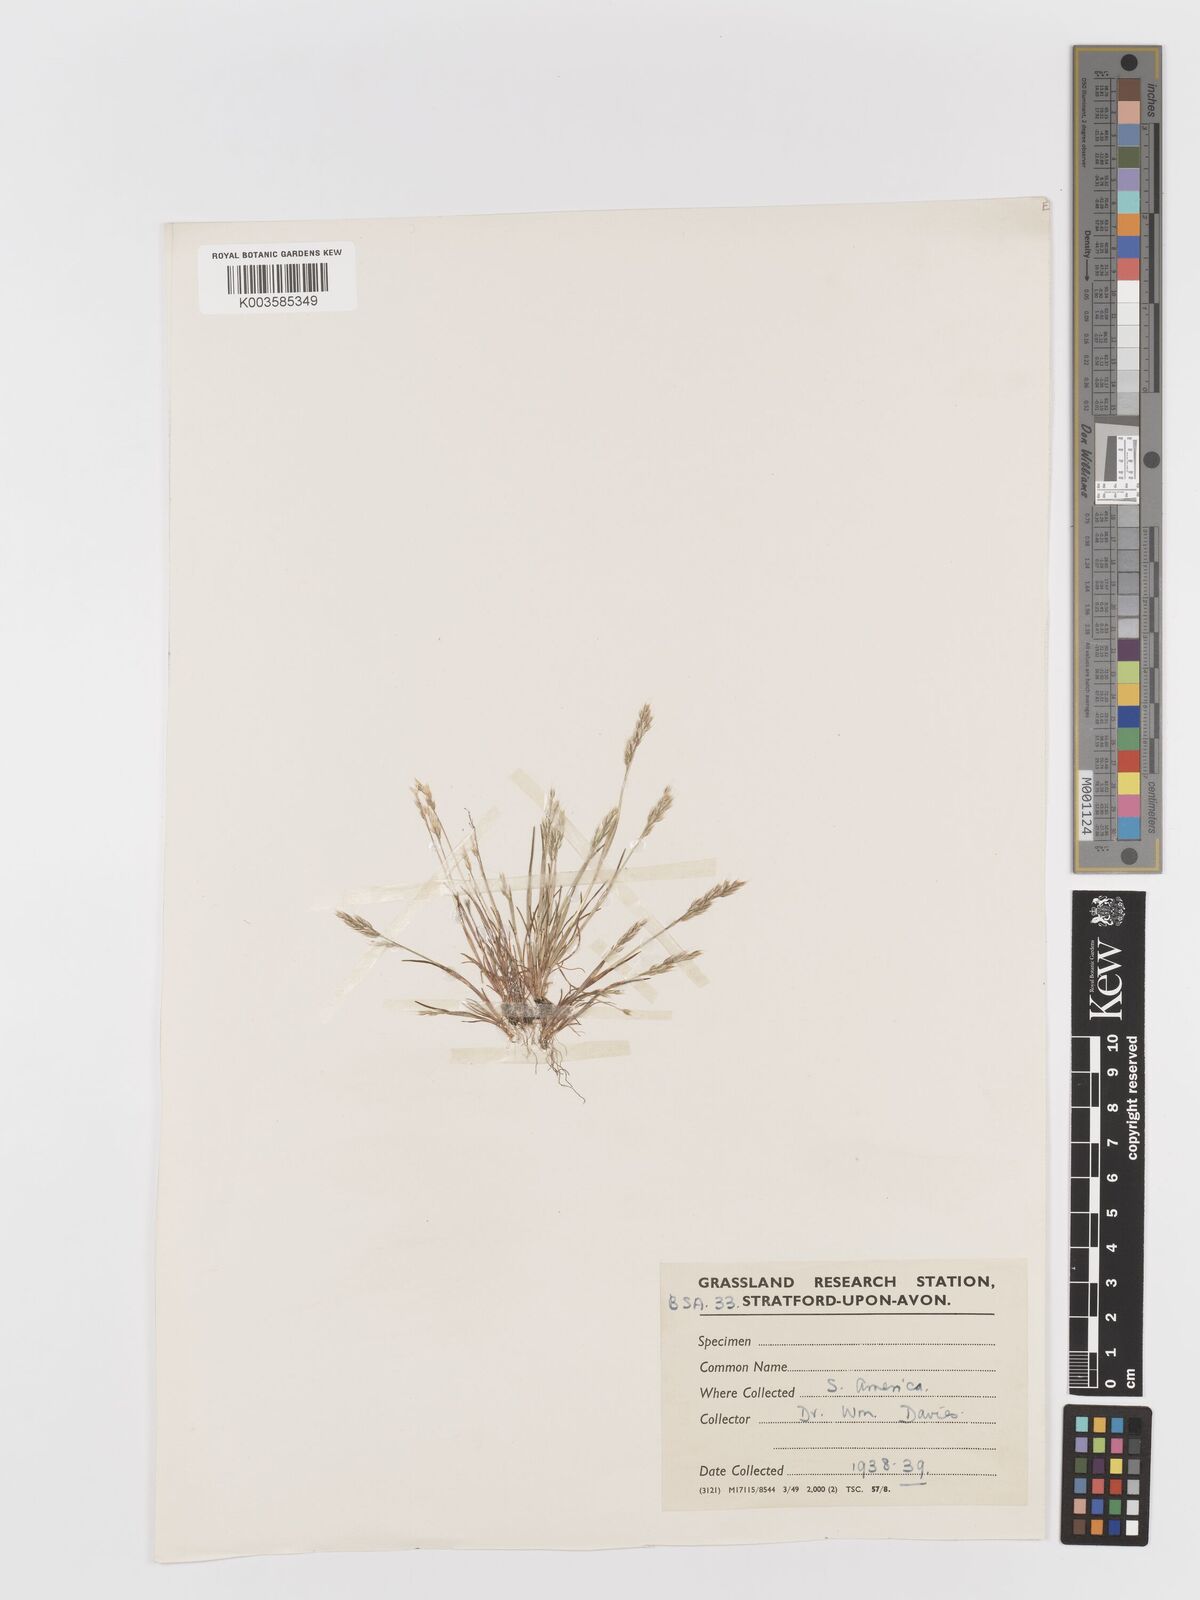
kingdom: Plantae
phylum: Tracheophyta
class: Liliopsida
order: Poales
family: Poaceae
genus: Aira
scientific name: Aira praecox
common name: Early hair-grass
